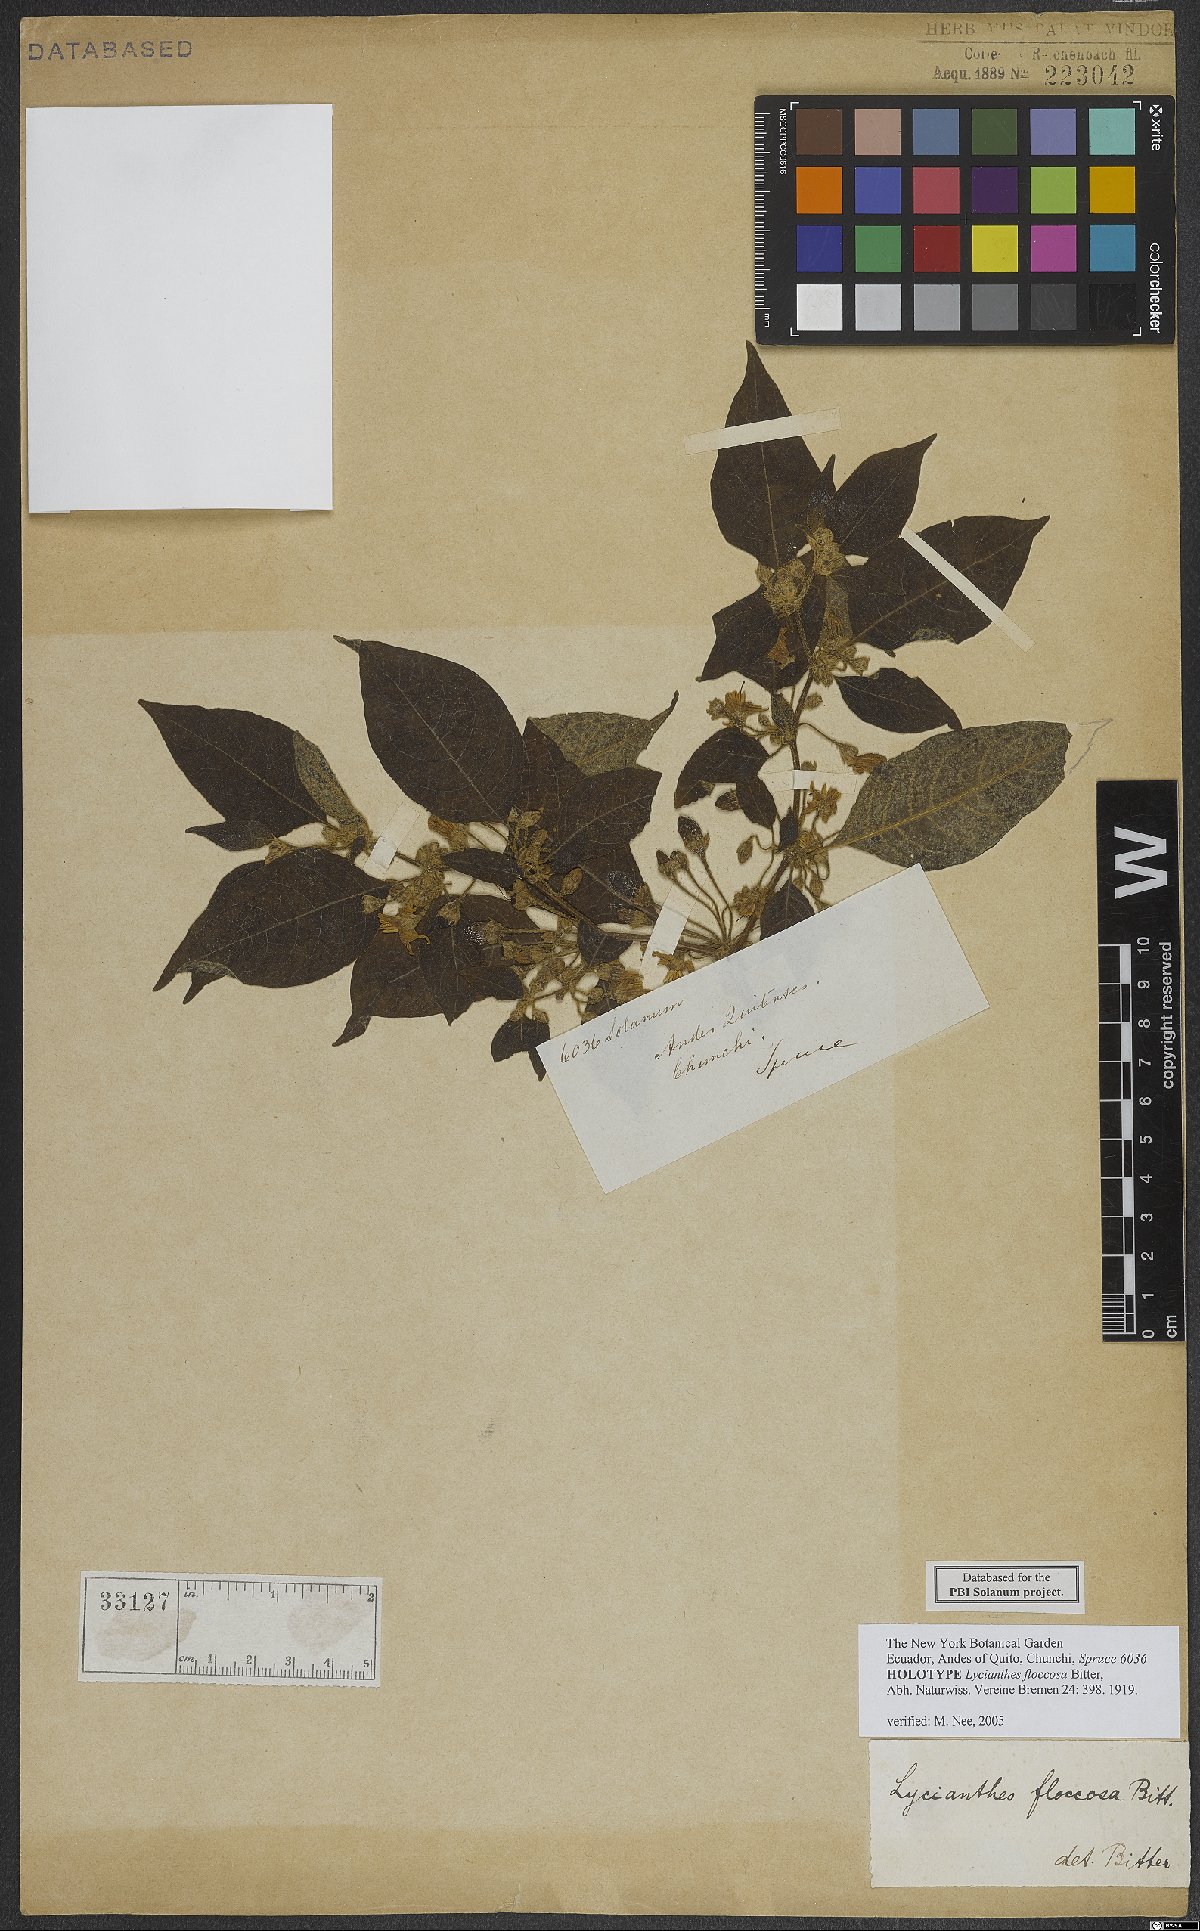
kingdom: Plantae
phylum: Tracheophyta
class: Magnoliopsida
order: Solanales
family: Solanaceae
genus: Lycianthes
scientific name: Lycianthes floccosa
